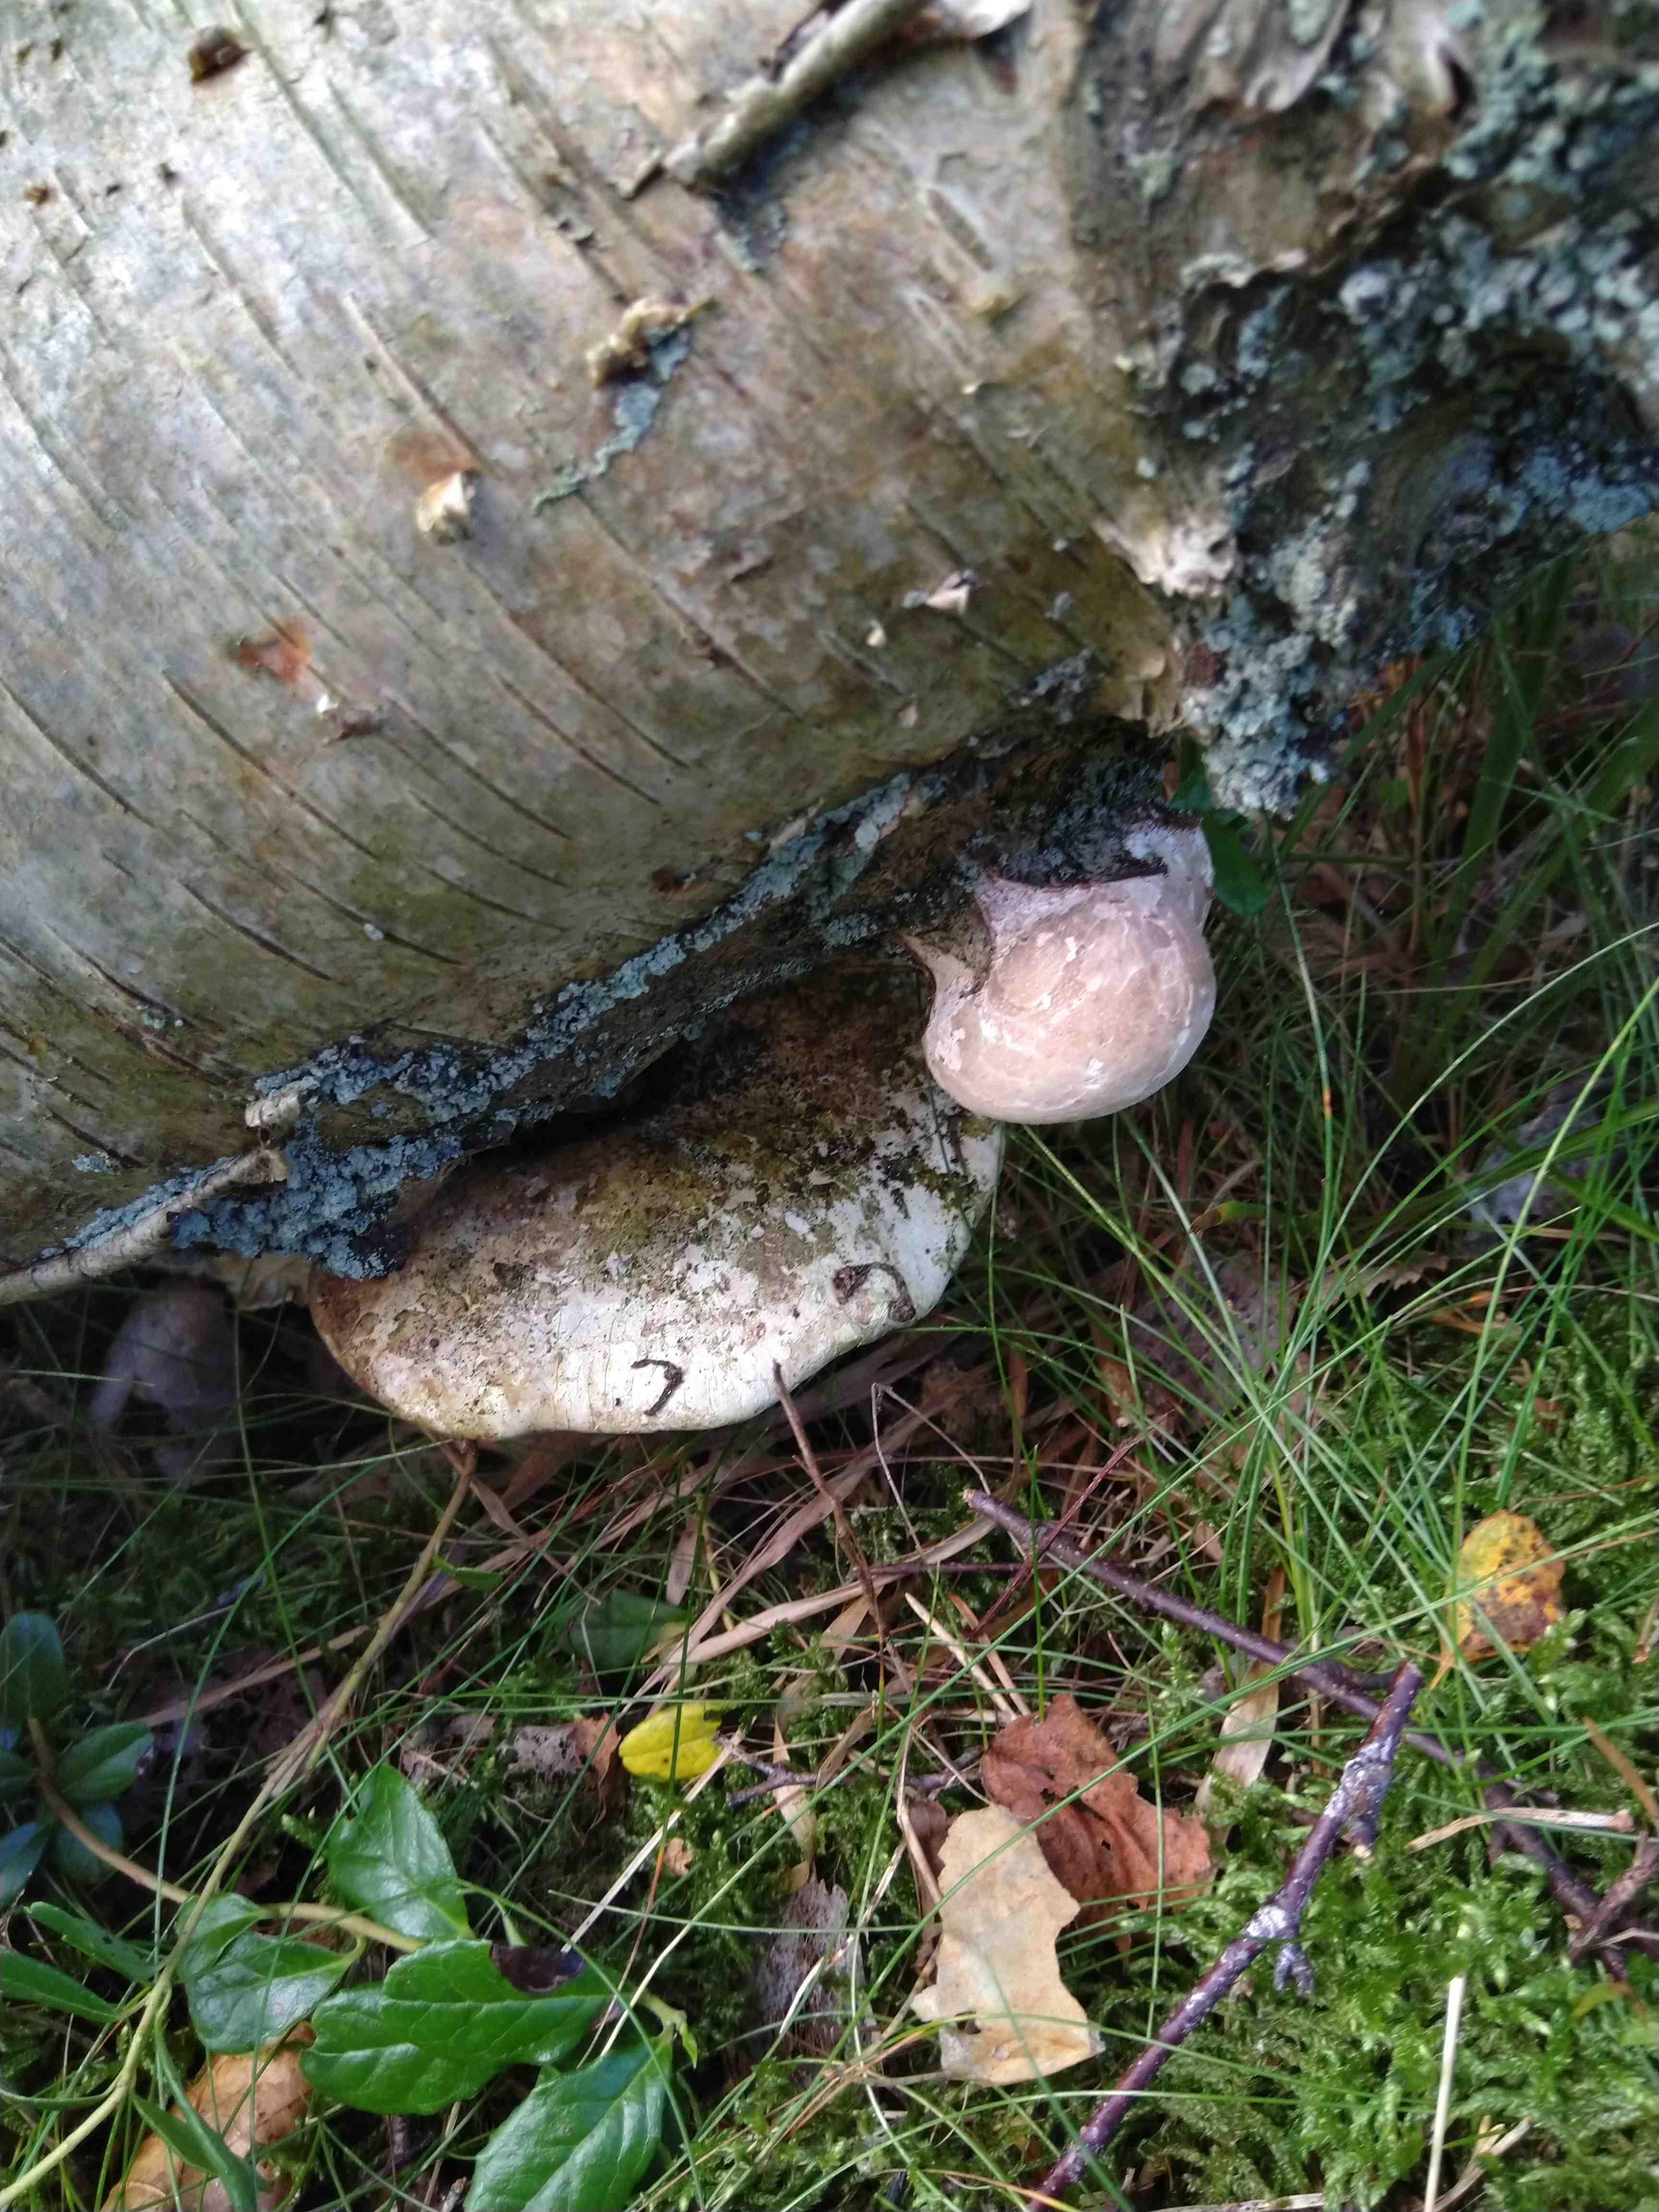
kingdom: Fungi
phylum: Basidiomycota
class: Agaricomycetes
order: Polyporales
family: Fomitopsidaceae
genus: Fomitopsis
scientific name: Fomitopsis betulina
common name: birkeporesvamp
